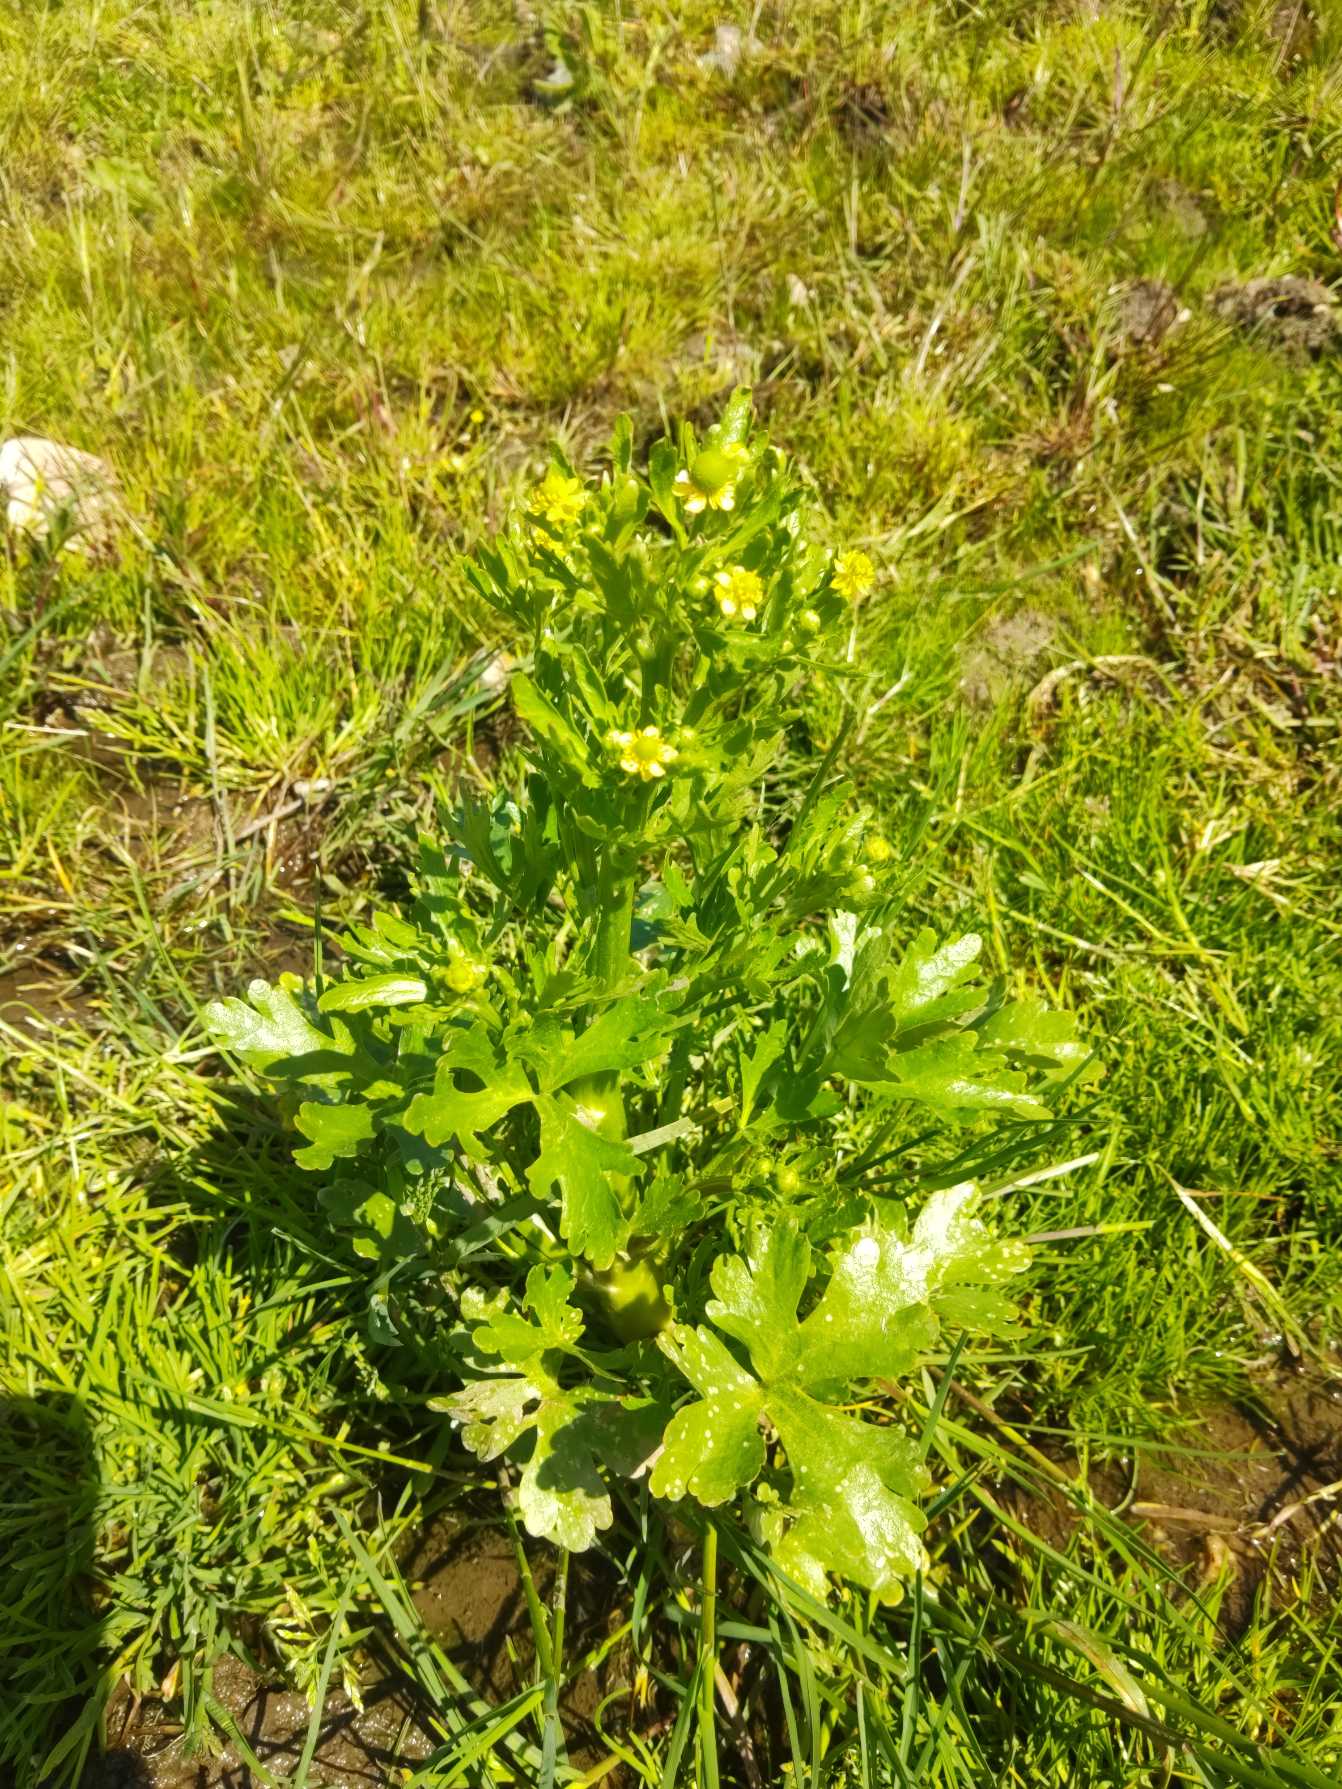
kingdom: Plantae
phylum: Tracheophyta
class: Magnoliopsida
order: Ranunculales
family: Ranunculaceae
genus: Ranunculus
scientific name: Ranunculus sceleratus
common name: Tigger-ranunkel
